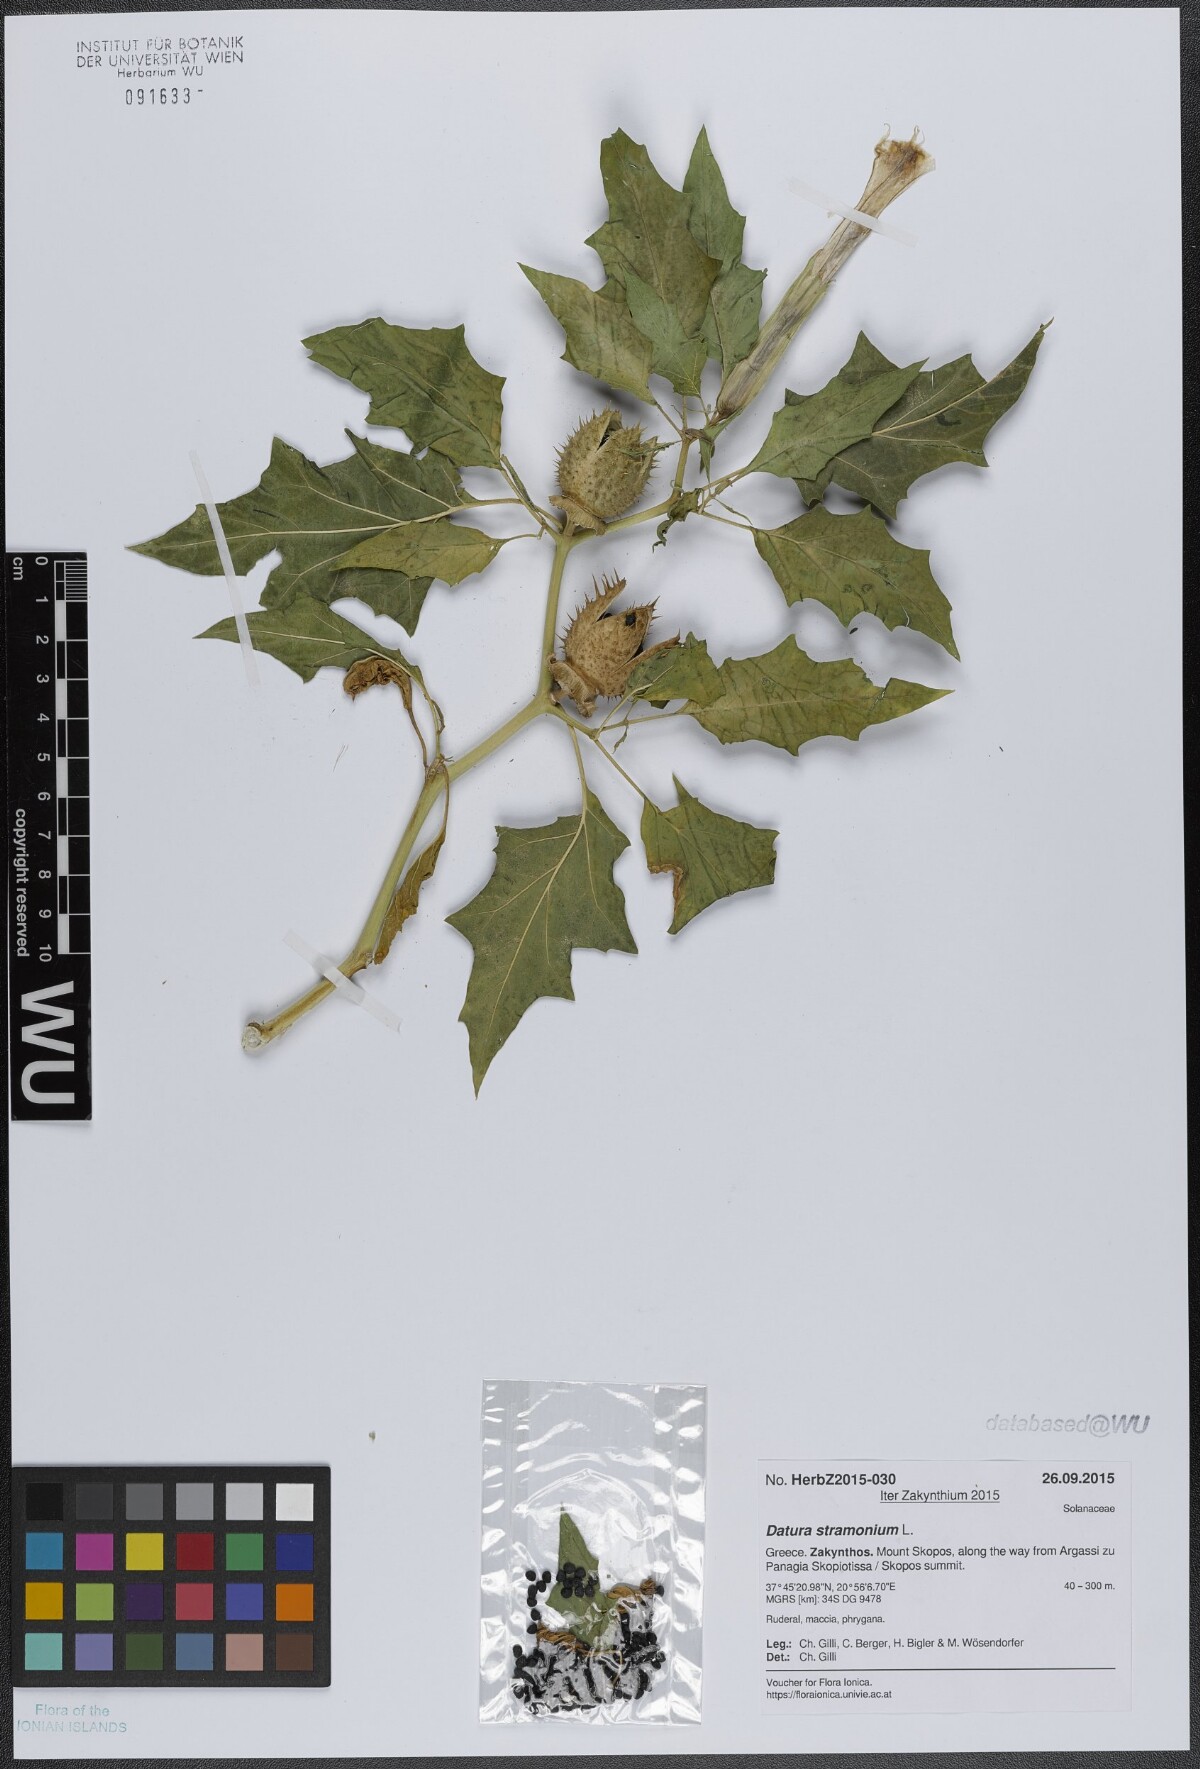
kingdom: Plantae
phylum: Tracheophyta
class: Magnoliopsida
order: Solanales
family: Solanaceae
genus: Datura
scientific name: Datura stramonium
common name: Thorn-apple
